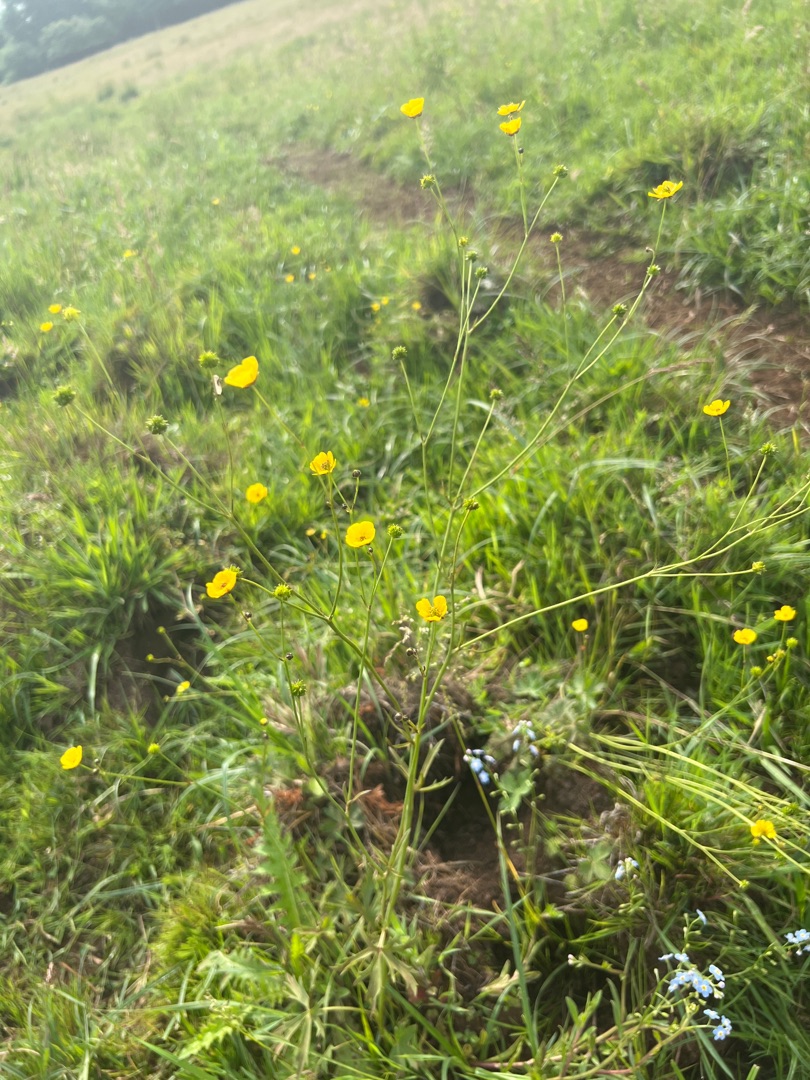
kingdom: Plantae
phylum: Tracheophyta
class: Magnoliopsida
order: Ranunculales
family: Ranunculaceae
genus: Ranunculus
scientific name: Ranunculus acris
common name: Bidende ranunkel
